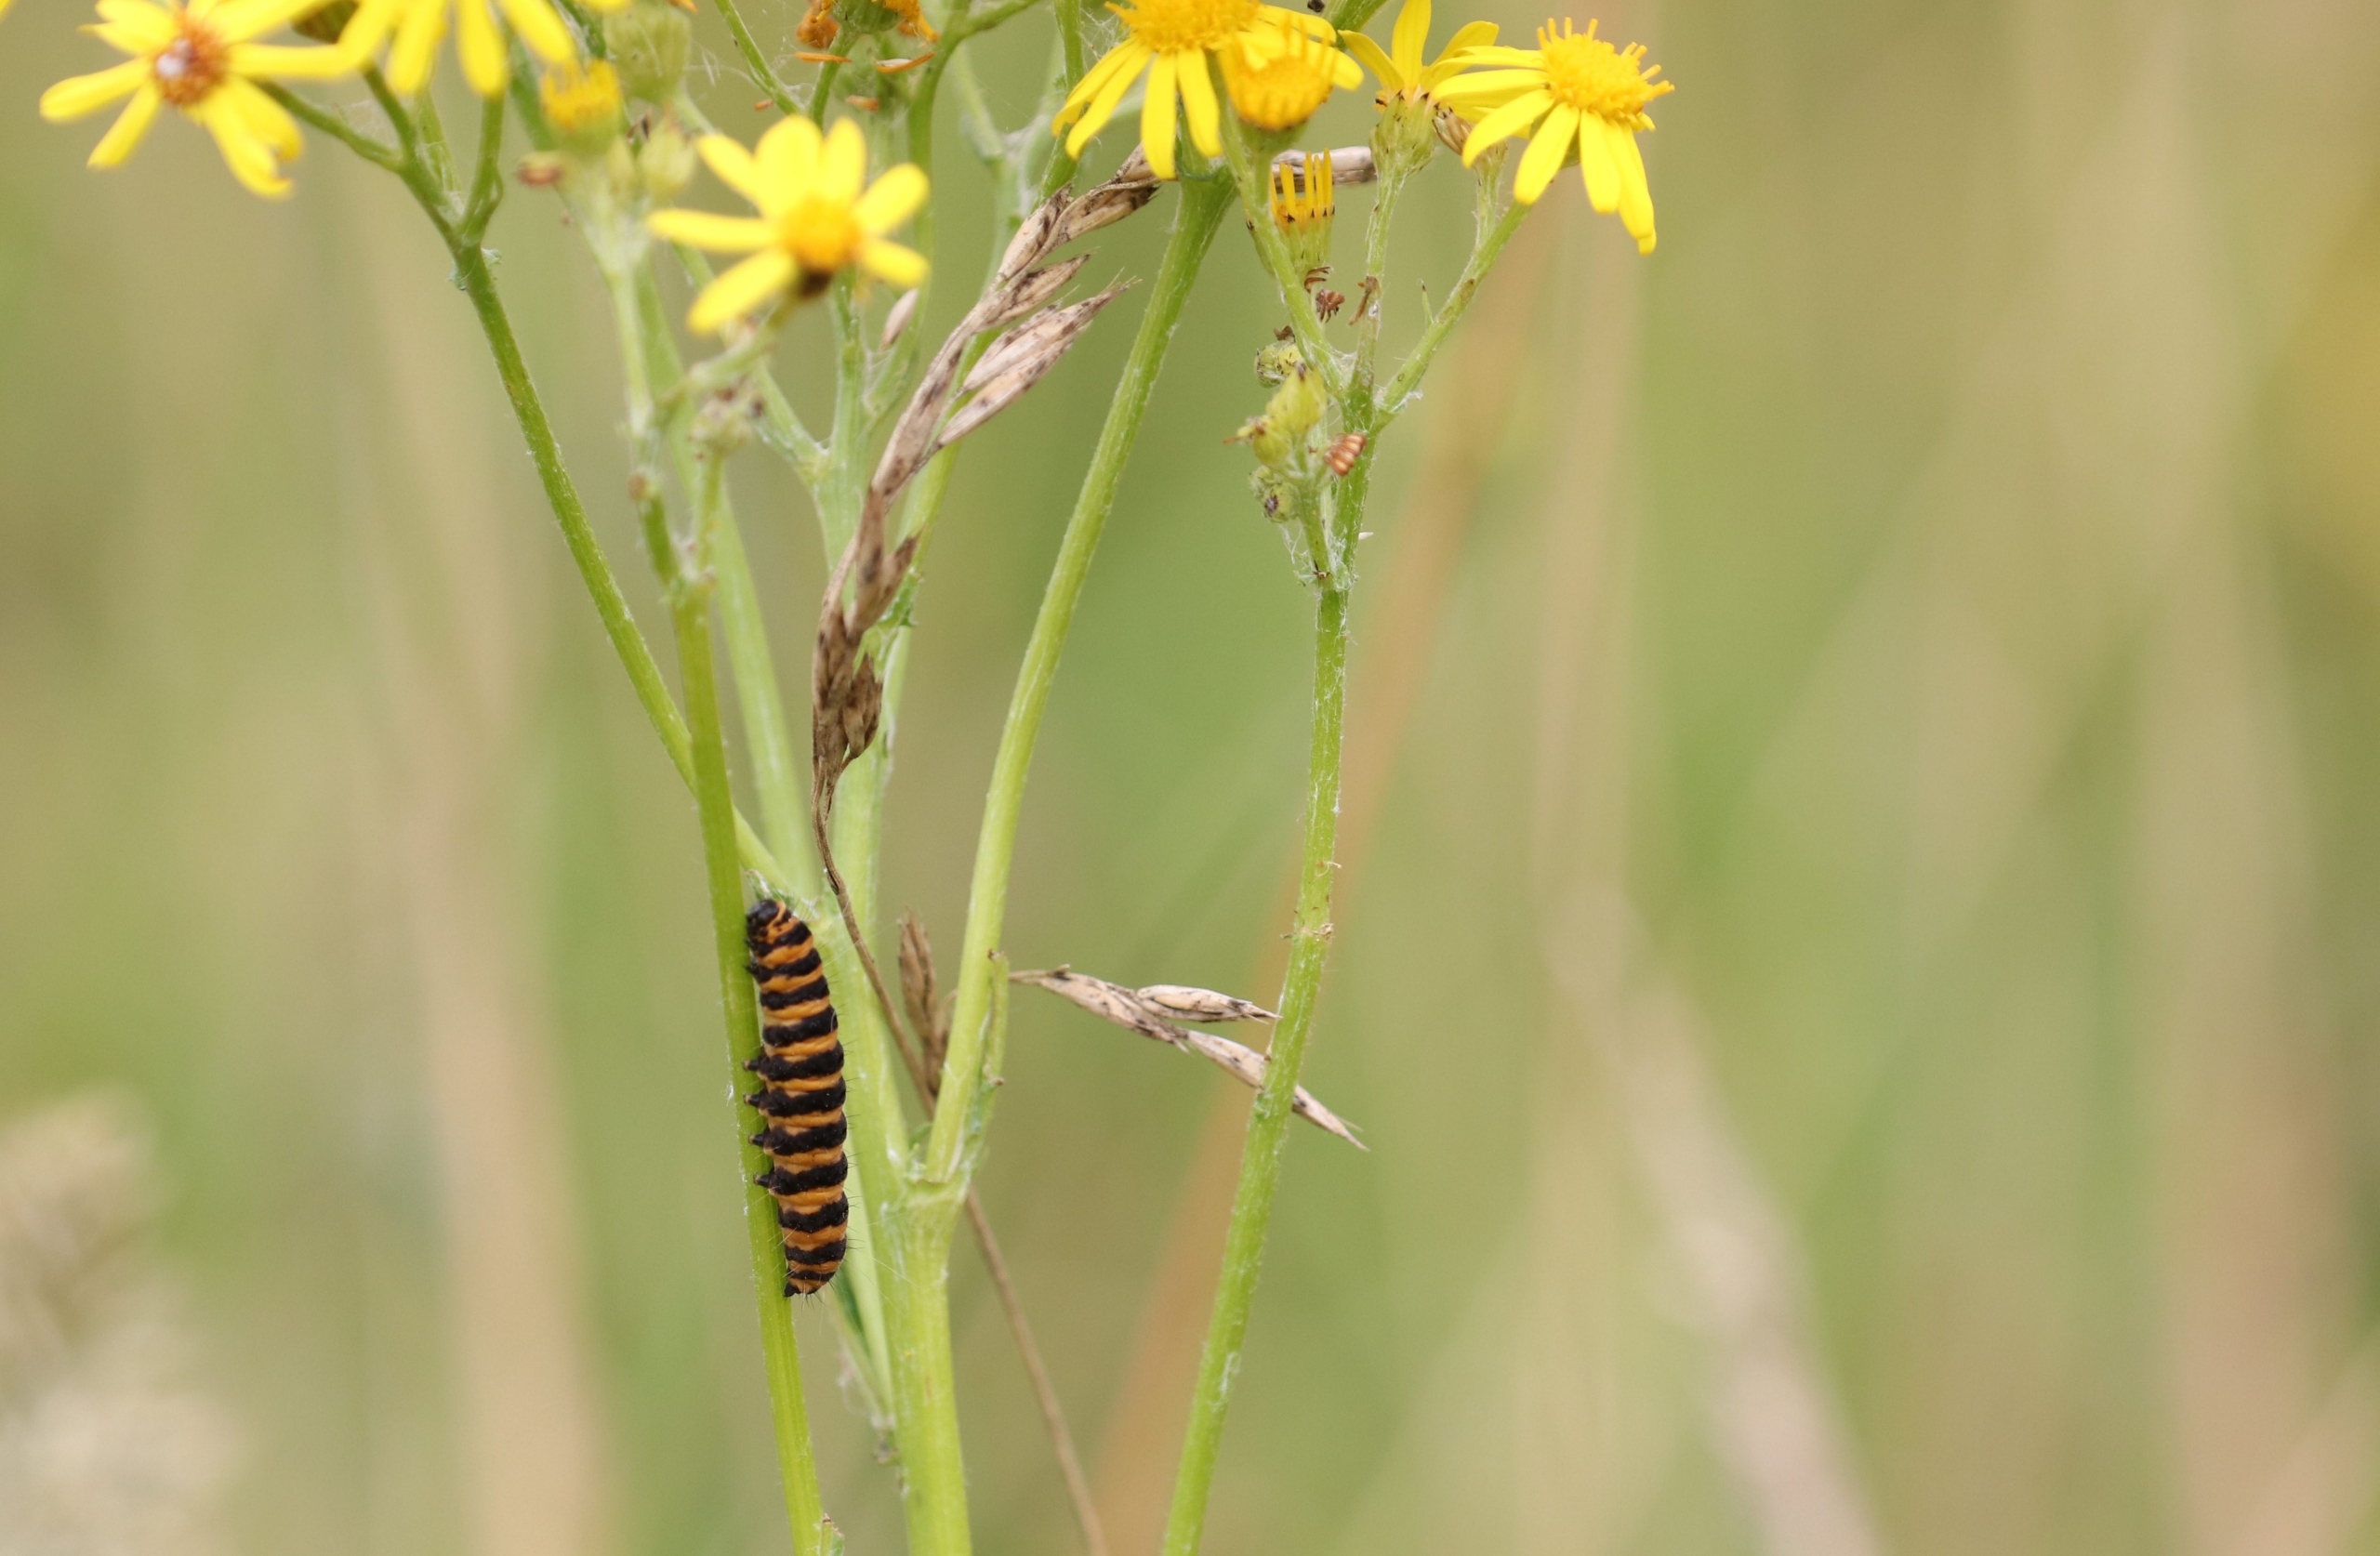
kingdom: Animalia
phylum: Arthropoda
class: Insecta
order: Lepidoptera
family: Erebidae
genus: Tyria
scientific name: Tyria jacobaeae
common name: Blodplet
